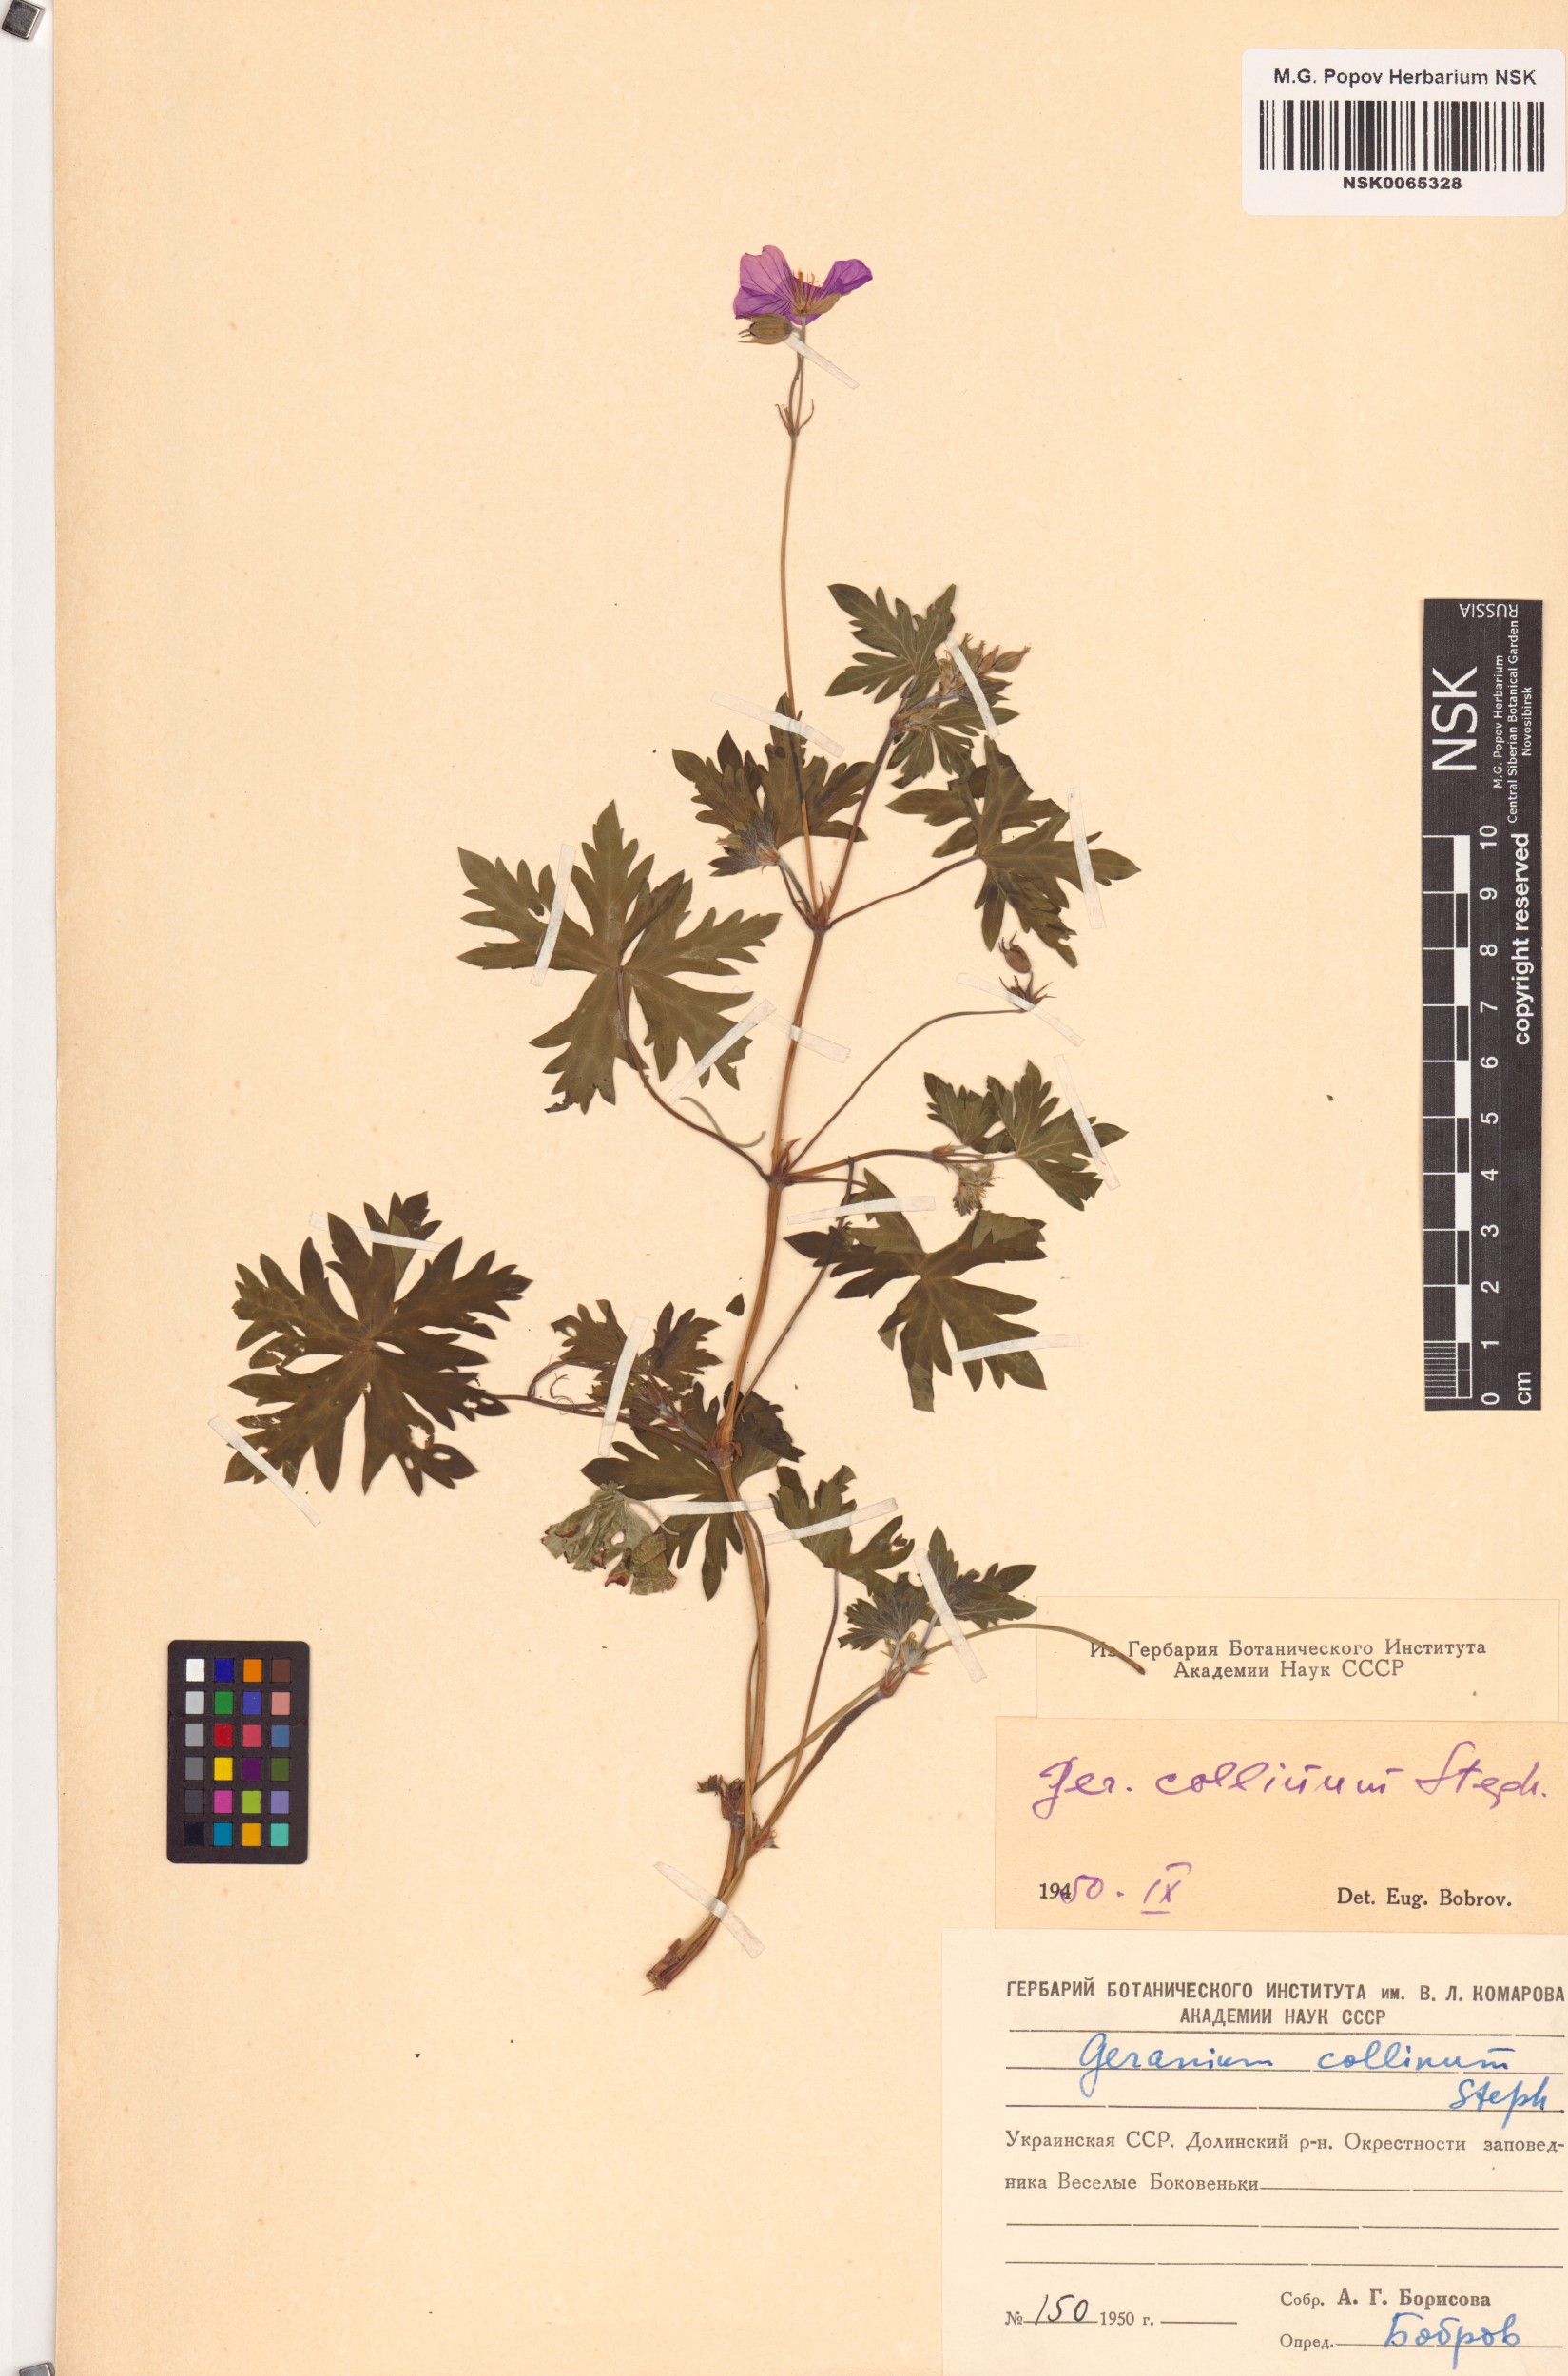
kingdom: Plantae
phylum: Tracheophyta
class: Magnoliopsida
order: Geraniales
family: Geraniaceae
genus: Geranium
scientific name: Geranium collinum
